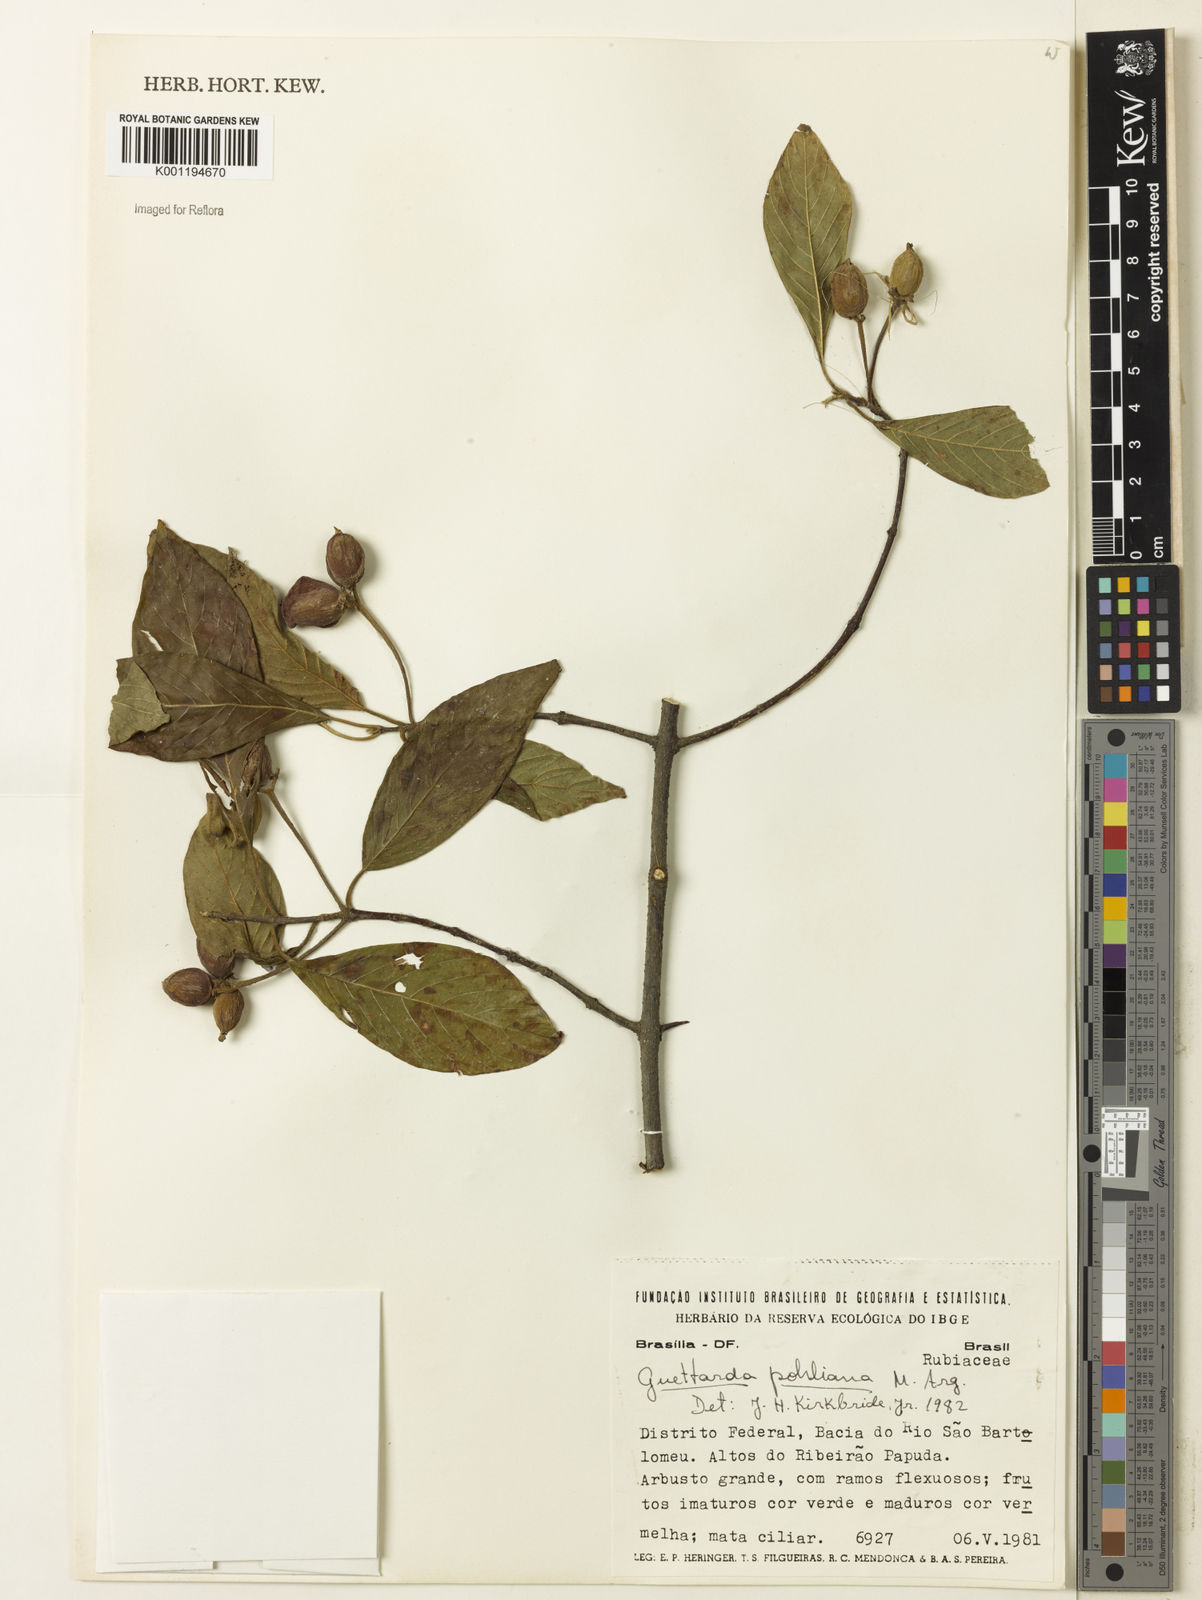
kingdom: Plantae
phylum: Tracheophyta
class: Magnoliopsida
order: Gentianales
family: Rubiaceae
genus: Guettarda
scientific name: Guettarda
